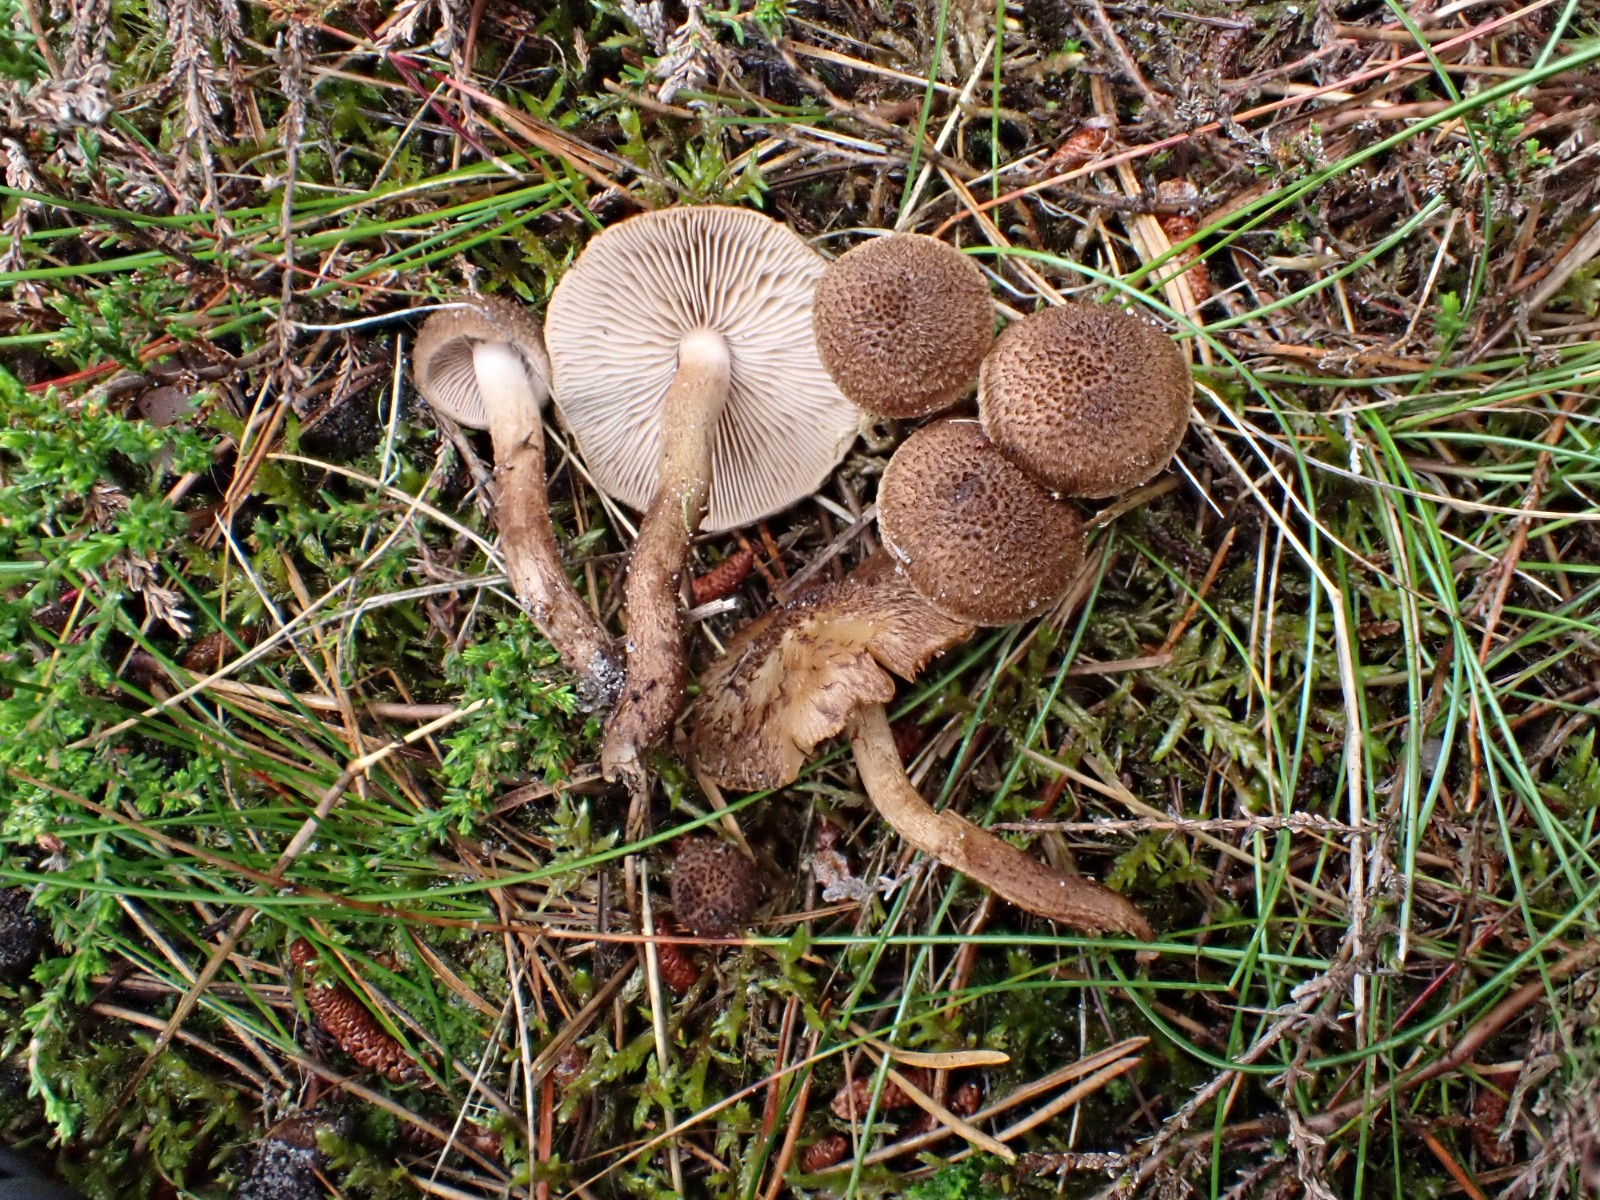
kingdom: Fungi
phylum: Basidiomycota
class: Agaricomycetes
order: Agaricales
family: Inocybaceae
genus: Inocybe
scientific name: Inocybe lanuginosa
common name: uldskællet trævlhat
